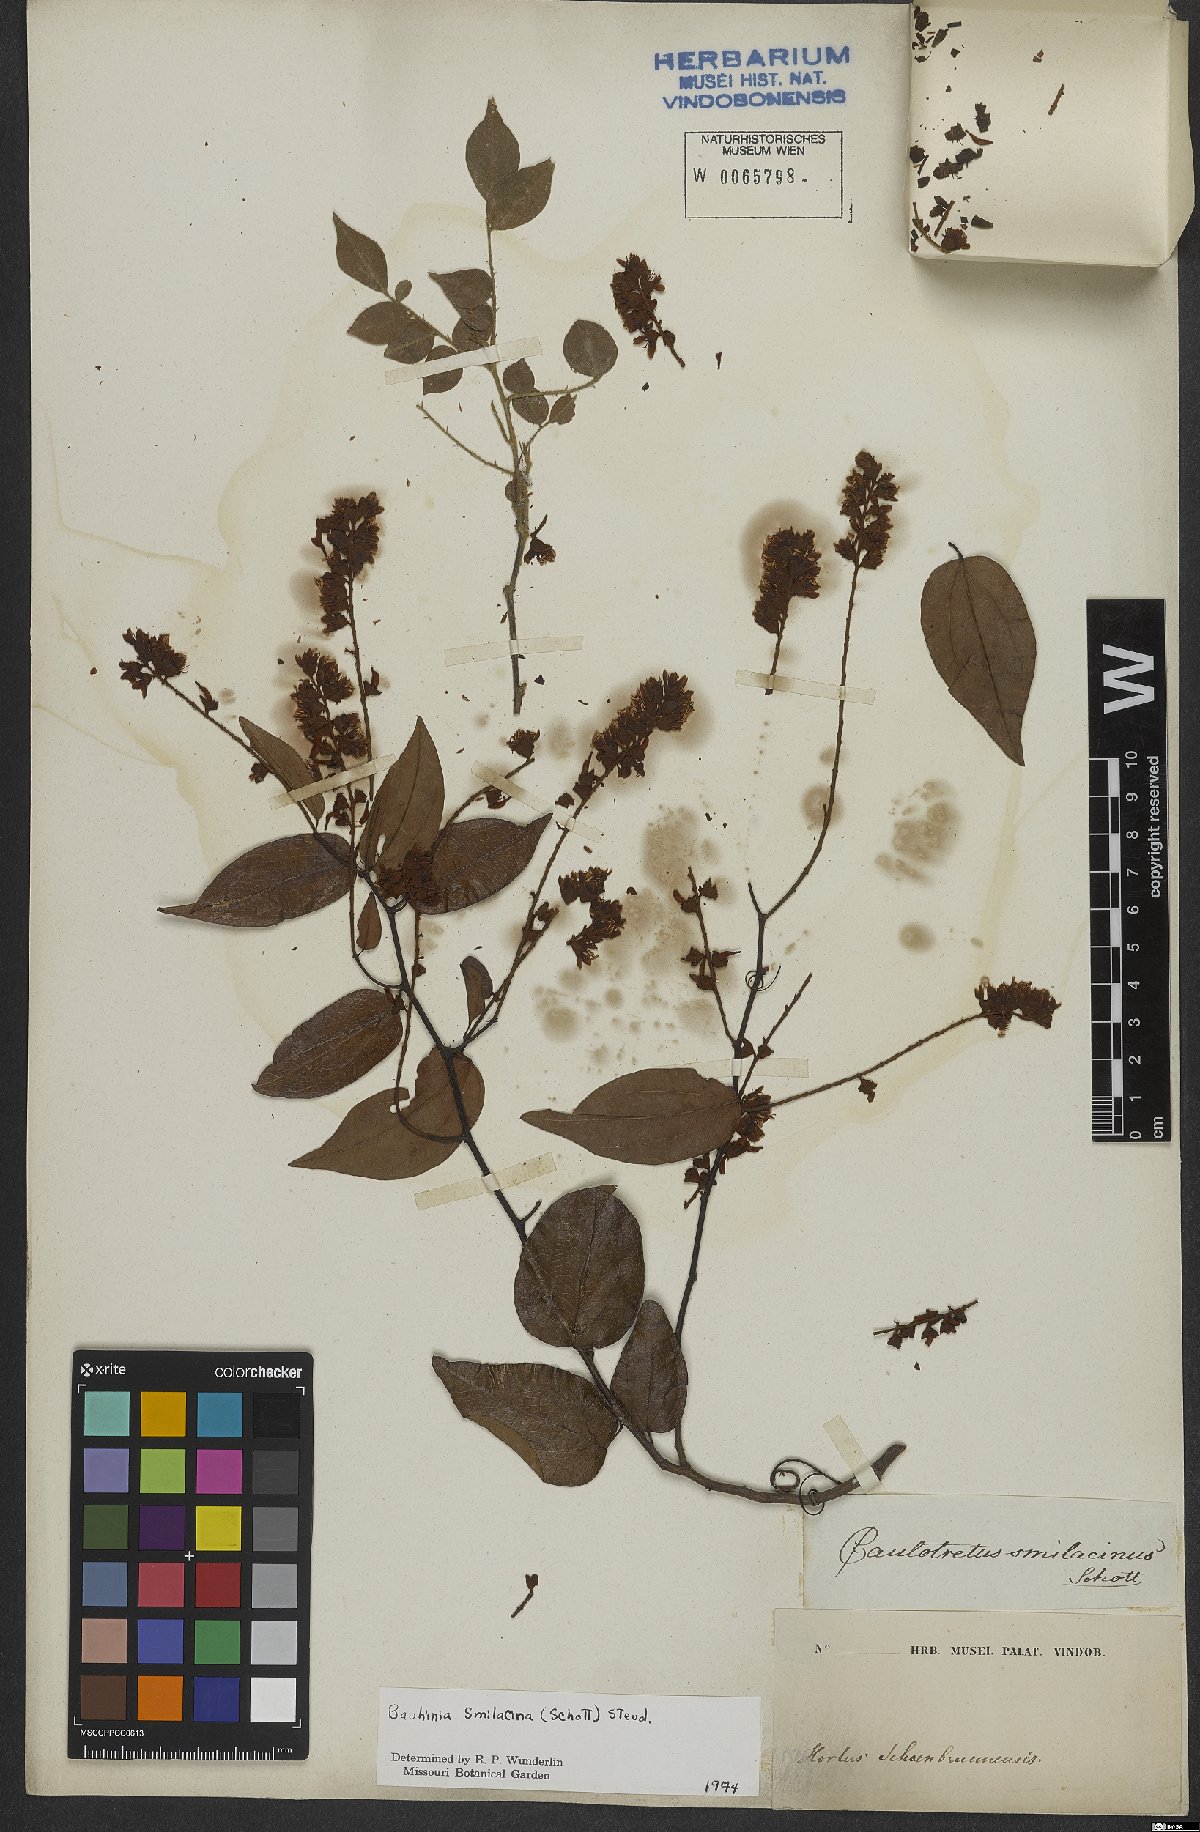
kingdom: Plantae
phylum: Tracheophyta
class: Magnoliopsida
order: Fabales
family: Fabaceae
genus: Schnella
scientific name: Schnella smilacina
